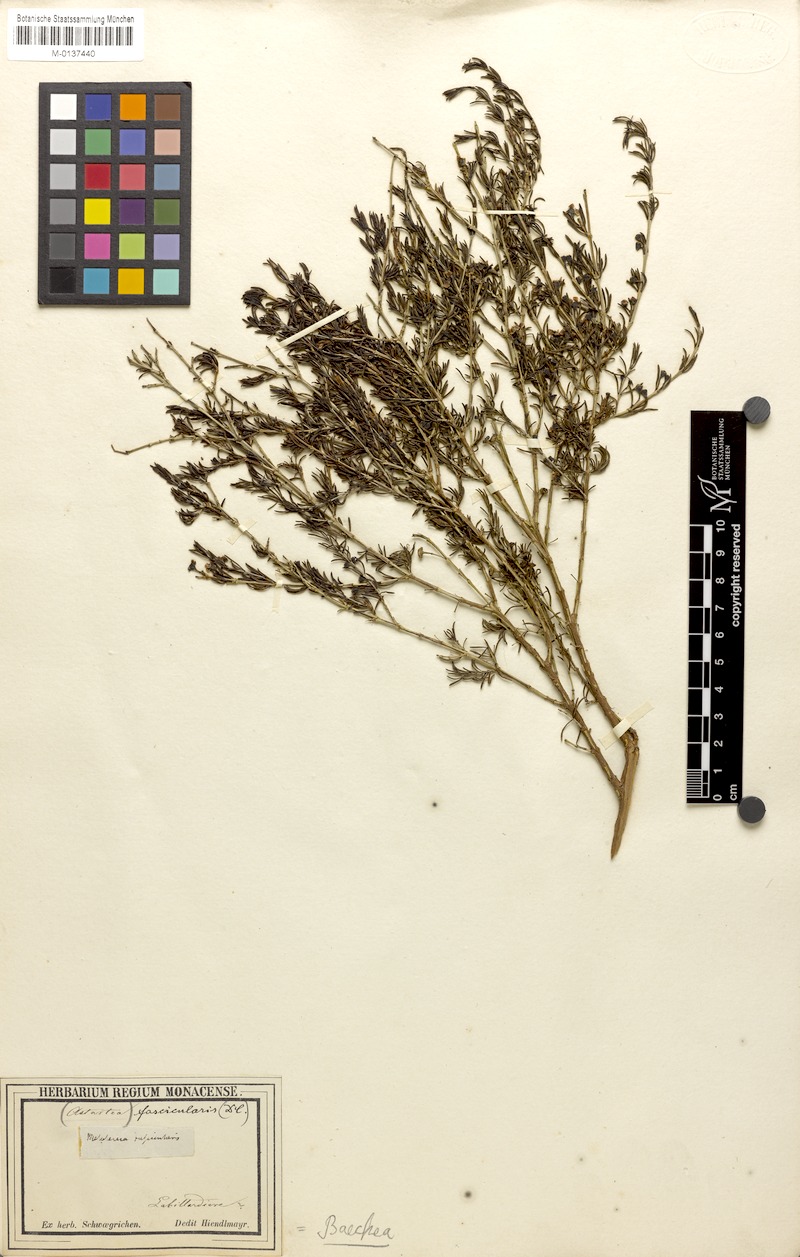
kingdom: Plantae
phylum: Tracheophyta
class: Magnoliopsida
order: Myrtales
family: Myrtaceae
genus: Astartea
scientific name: Astartea fascicularis
